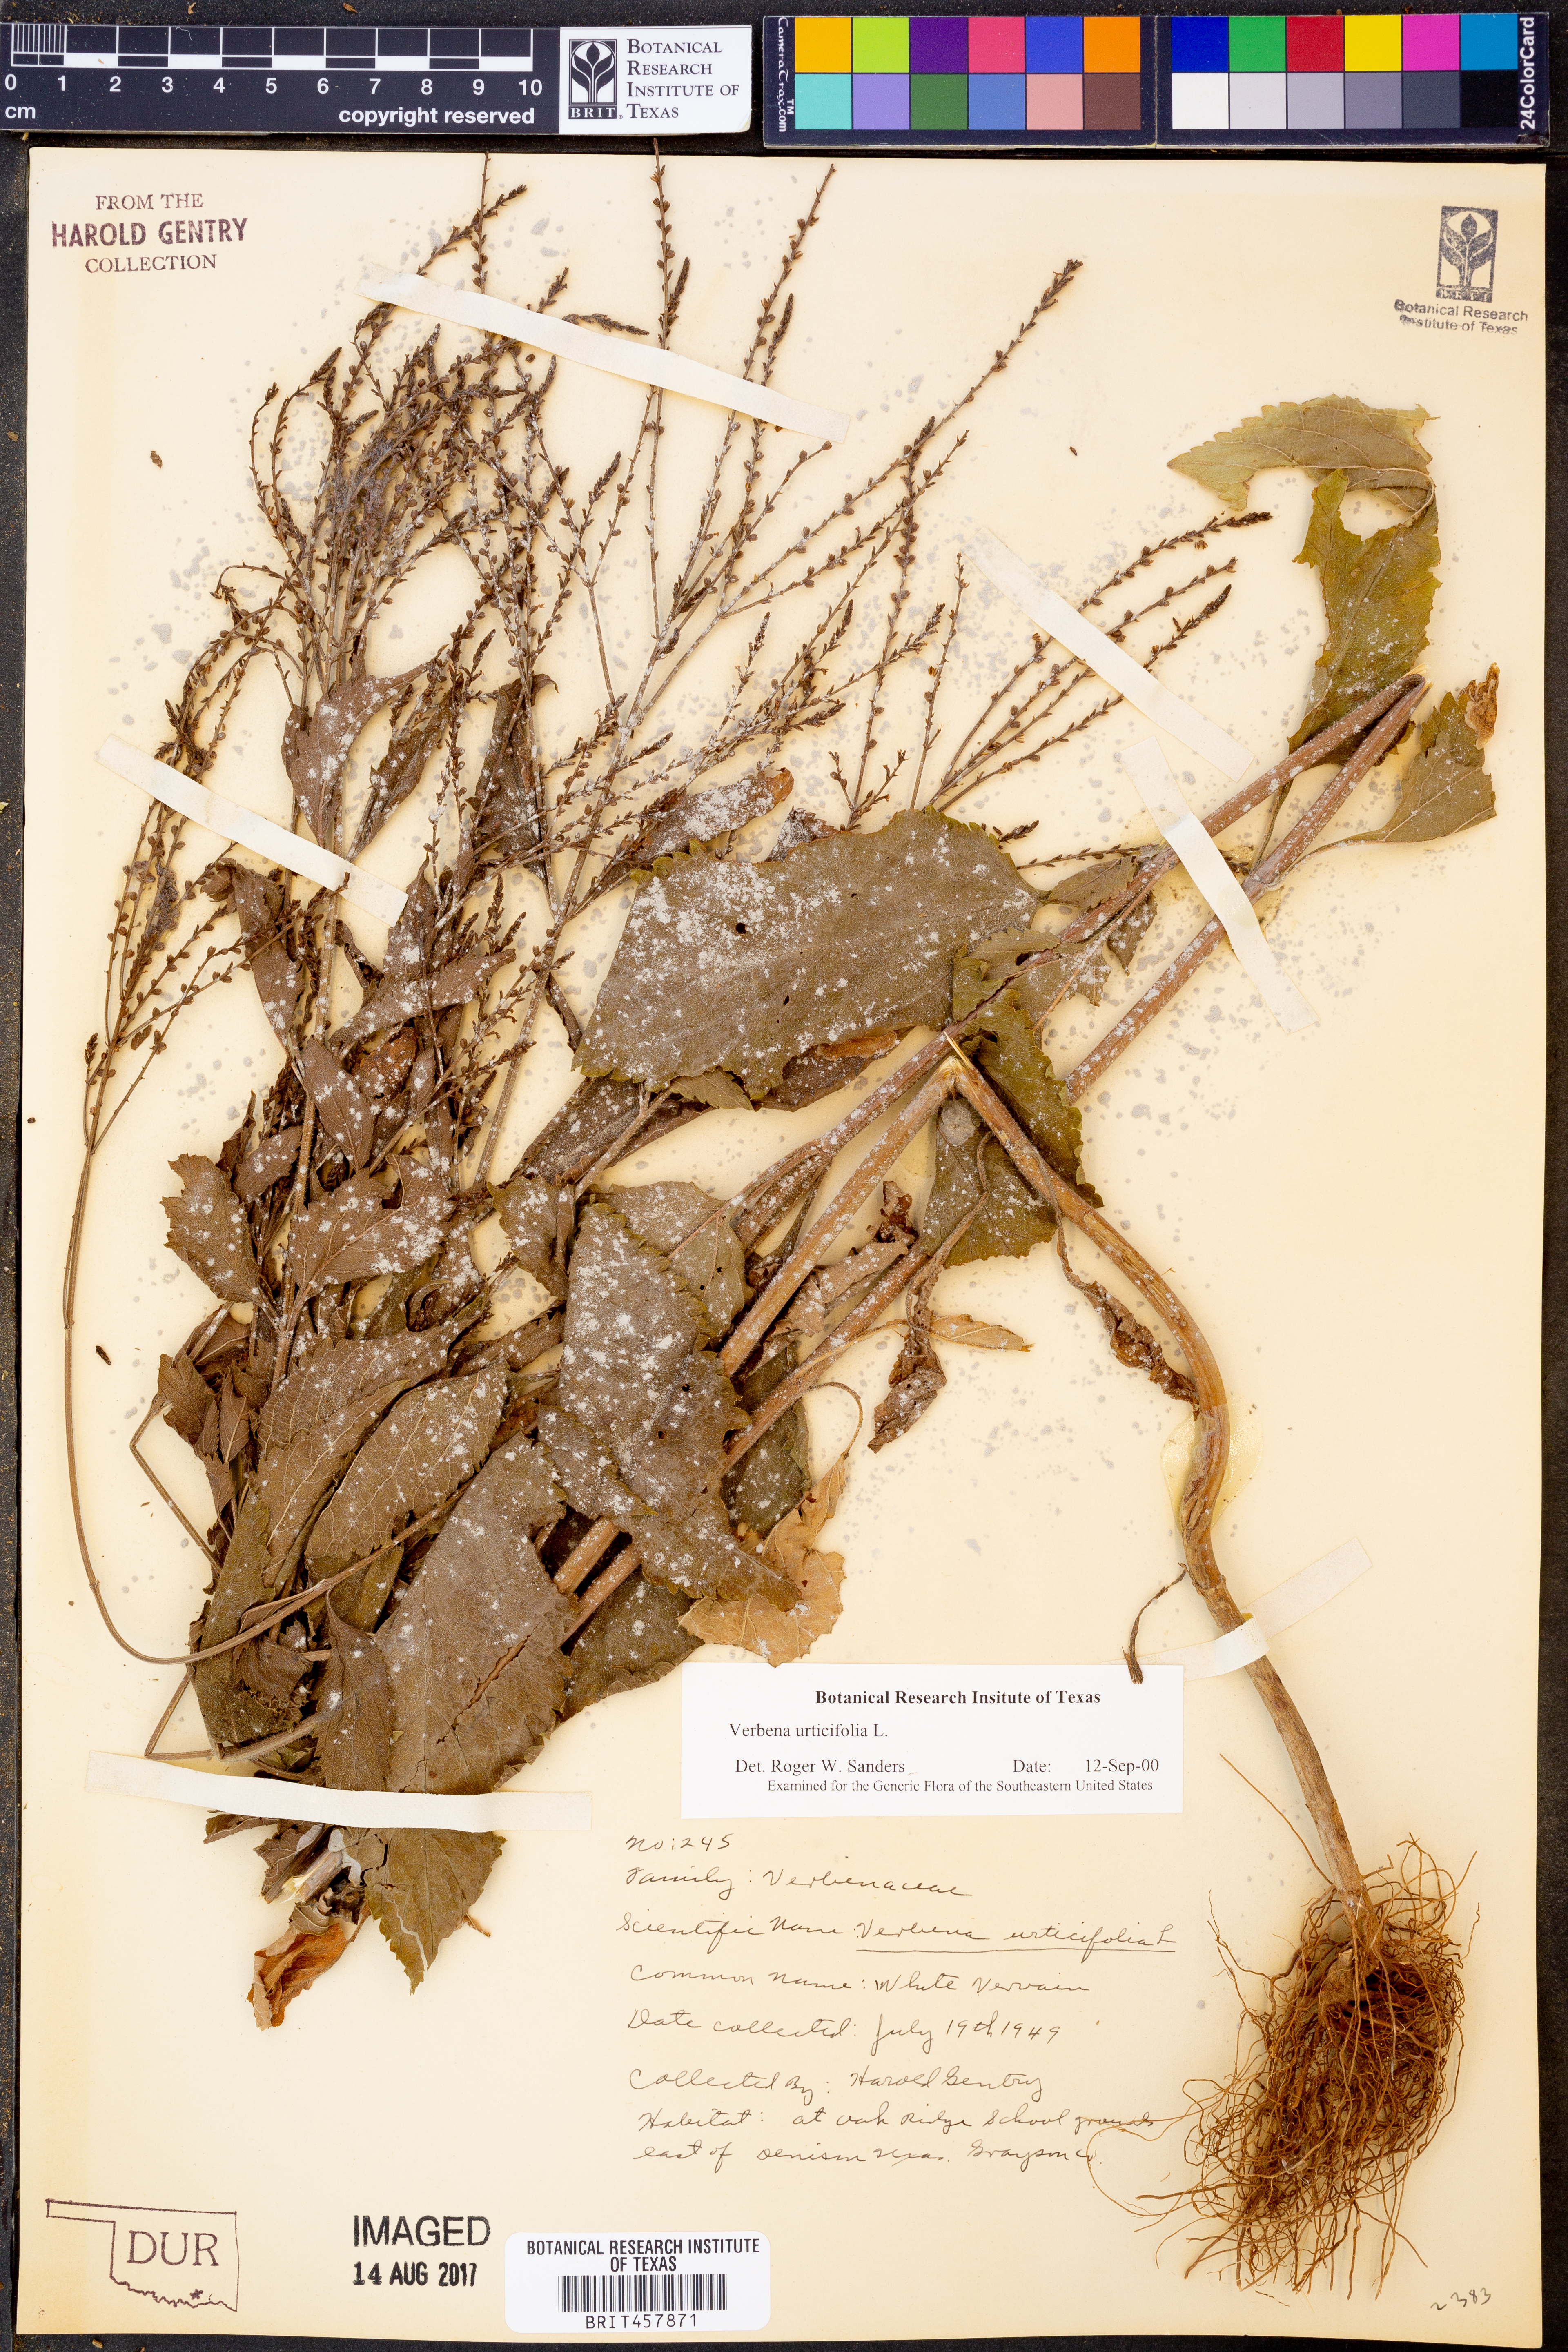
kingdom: Plantae
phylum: Tracheophyta
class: Magnoliopsida
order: Lamiales
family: Verbenaceae
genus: Verbena
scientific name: Verbena urticifolia
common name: Nettle-leaved vervain
